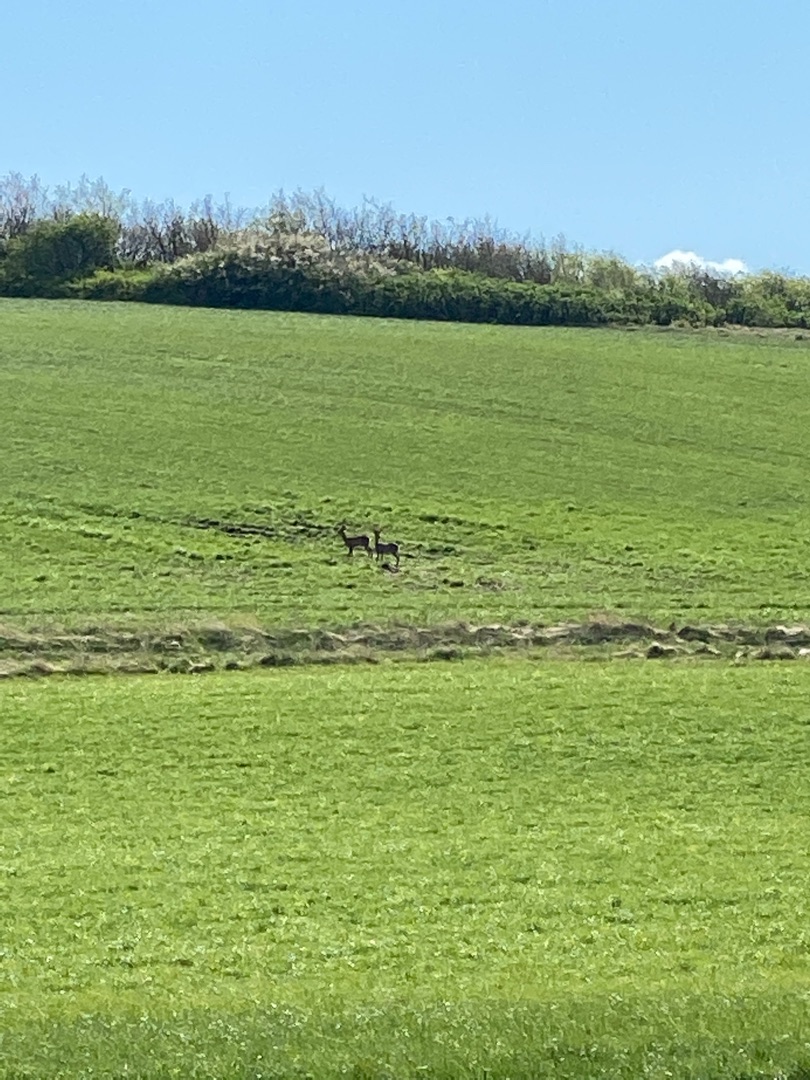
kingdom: Animalia
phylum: Chordata
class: Mammalia
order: Artiodactyla
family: Cervidae
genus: Capreolus
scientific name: Capreolus capreolus
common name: Rådyr
